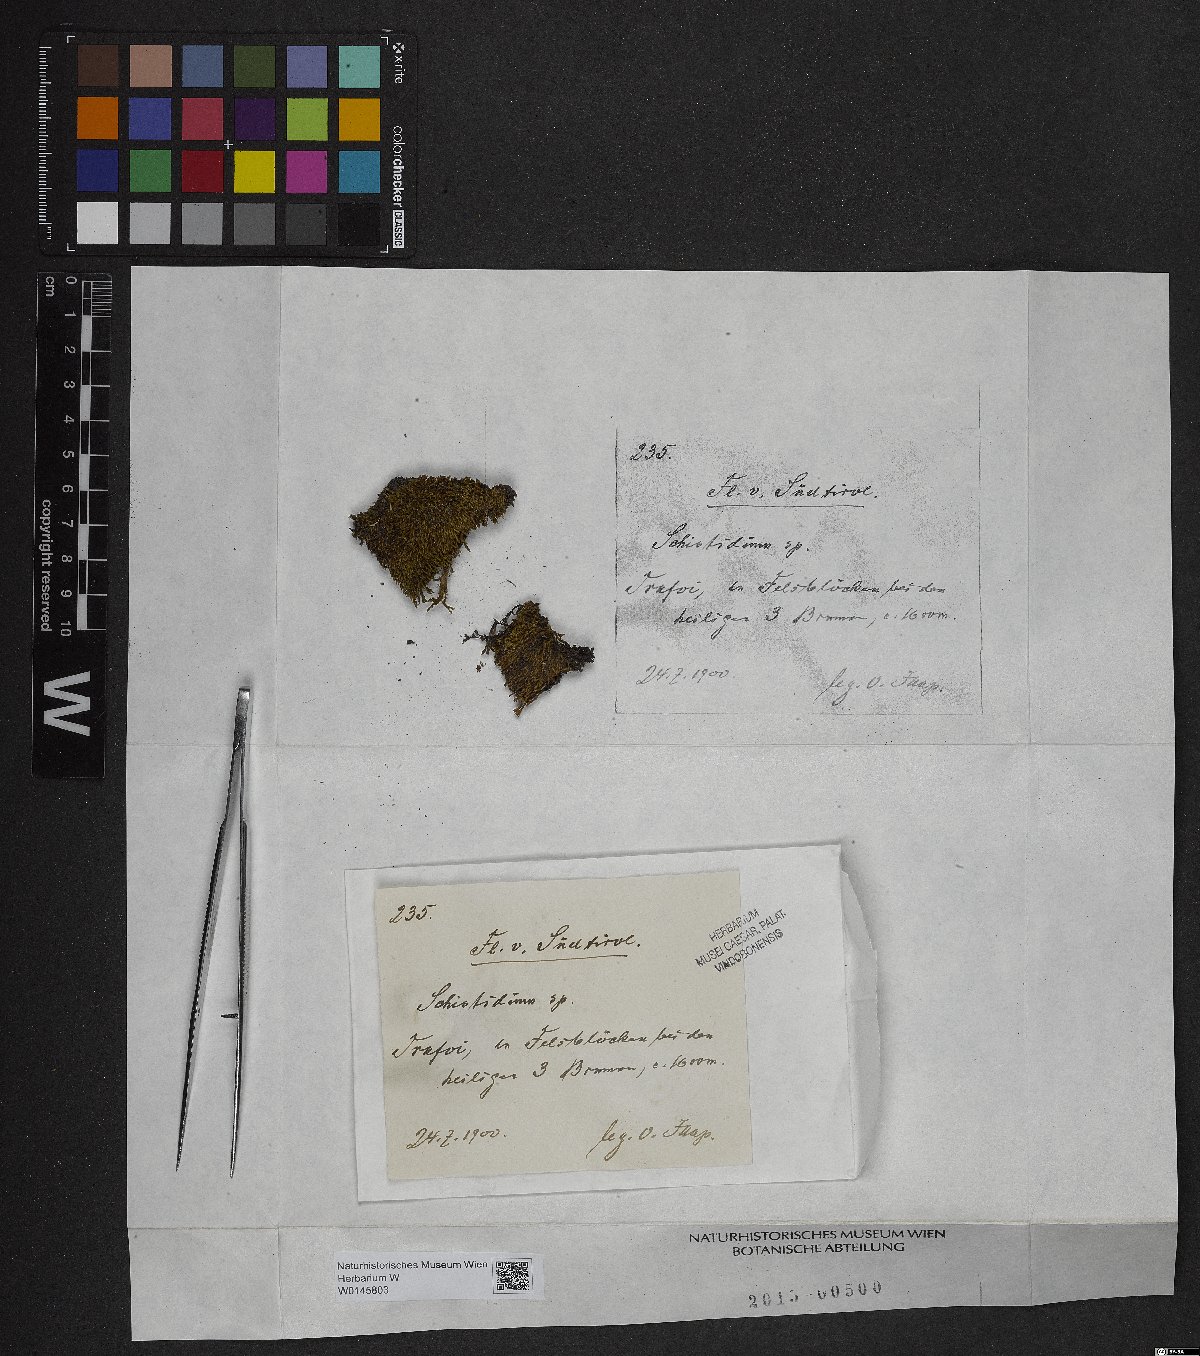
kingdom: Plantae
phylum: Bryophyta
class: Bryopsida
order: Grimmiales
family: Grimmiaceae
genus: Schistidium
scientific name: Schistidium
